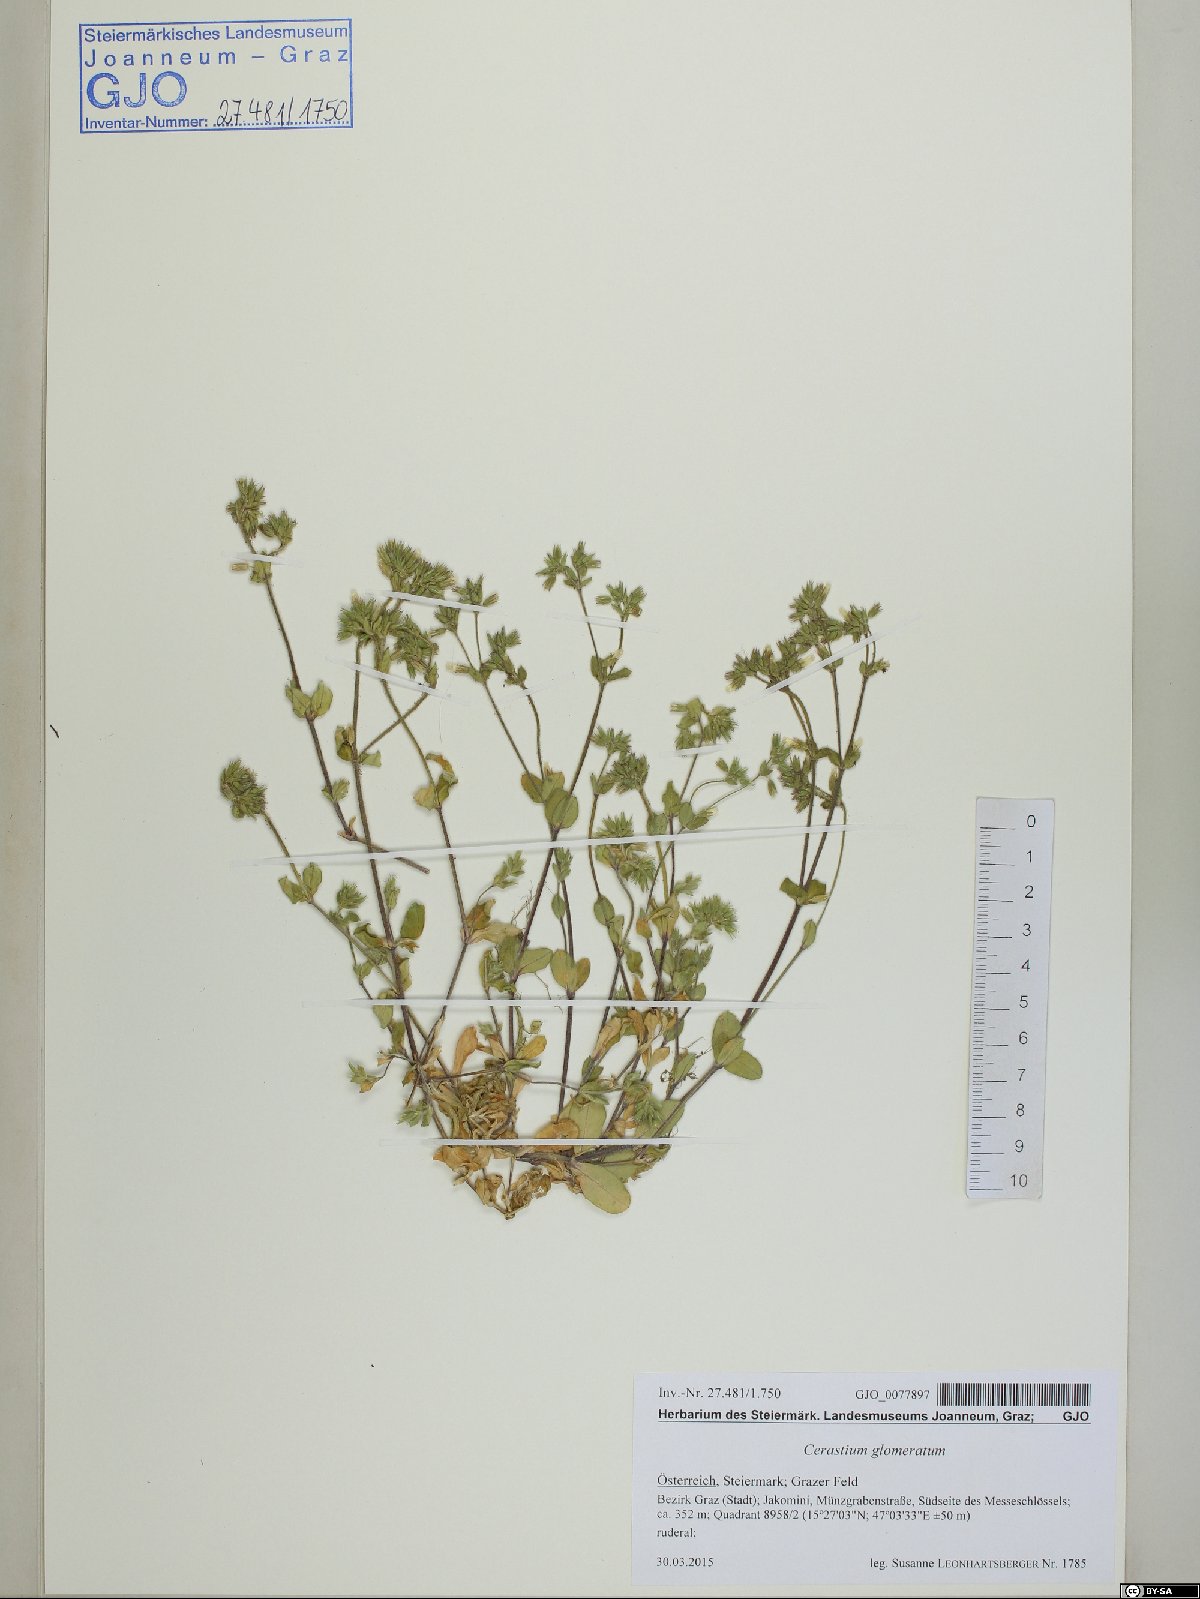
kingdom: Plantae
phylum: Tracheophyta
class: Magnoliopsida
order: Caryophyllales
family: Caryophyllaceae
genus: Cerastium
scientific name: Cerastium glomeratum
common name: Sticky chickweed
